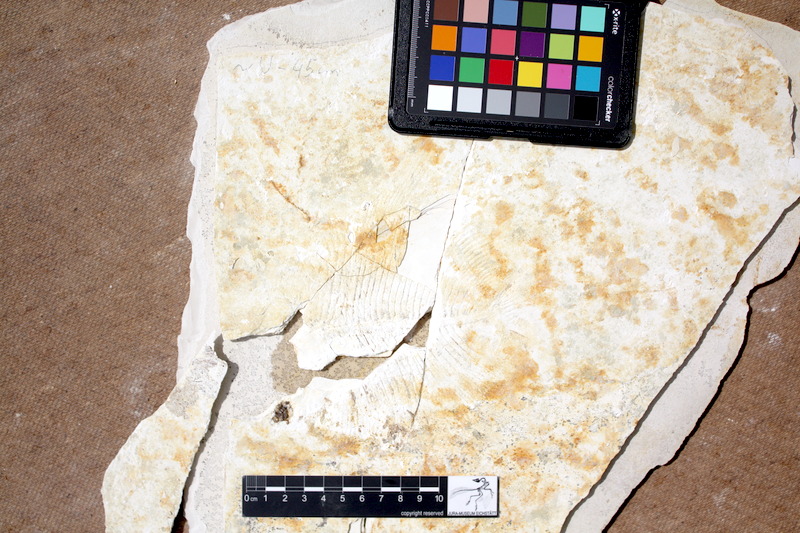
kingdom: Animalia
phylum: Chordata
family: Pycnodontidae
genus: Turbomesodon
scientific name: Turbomesodon relegans
